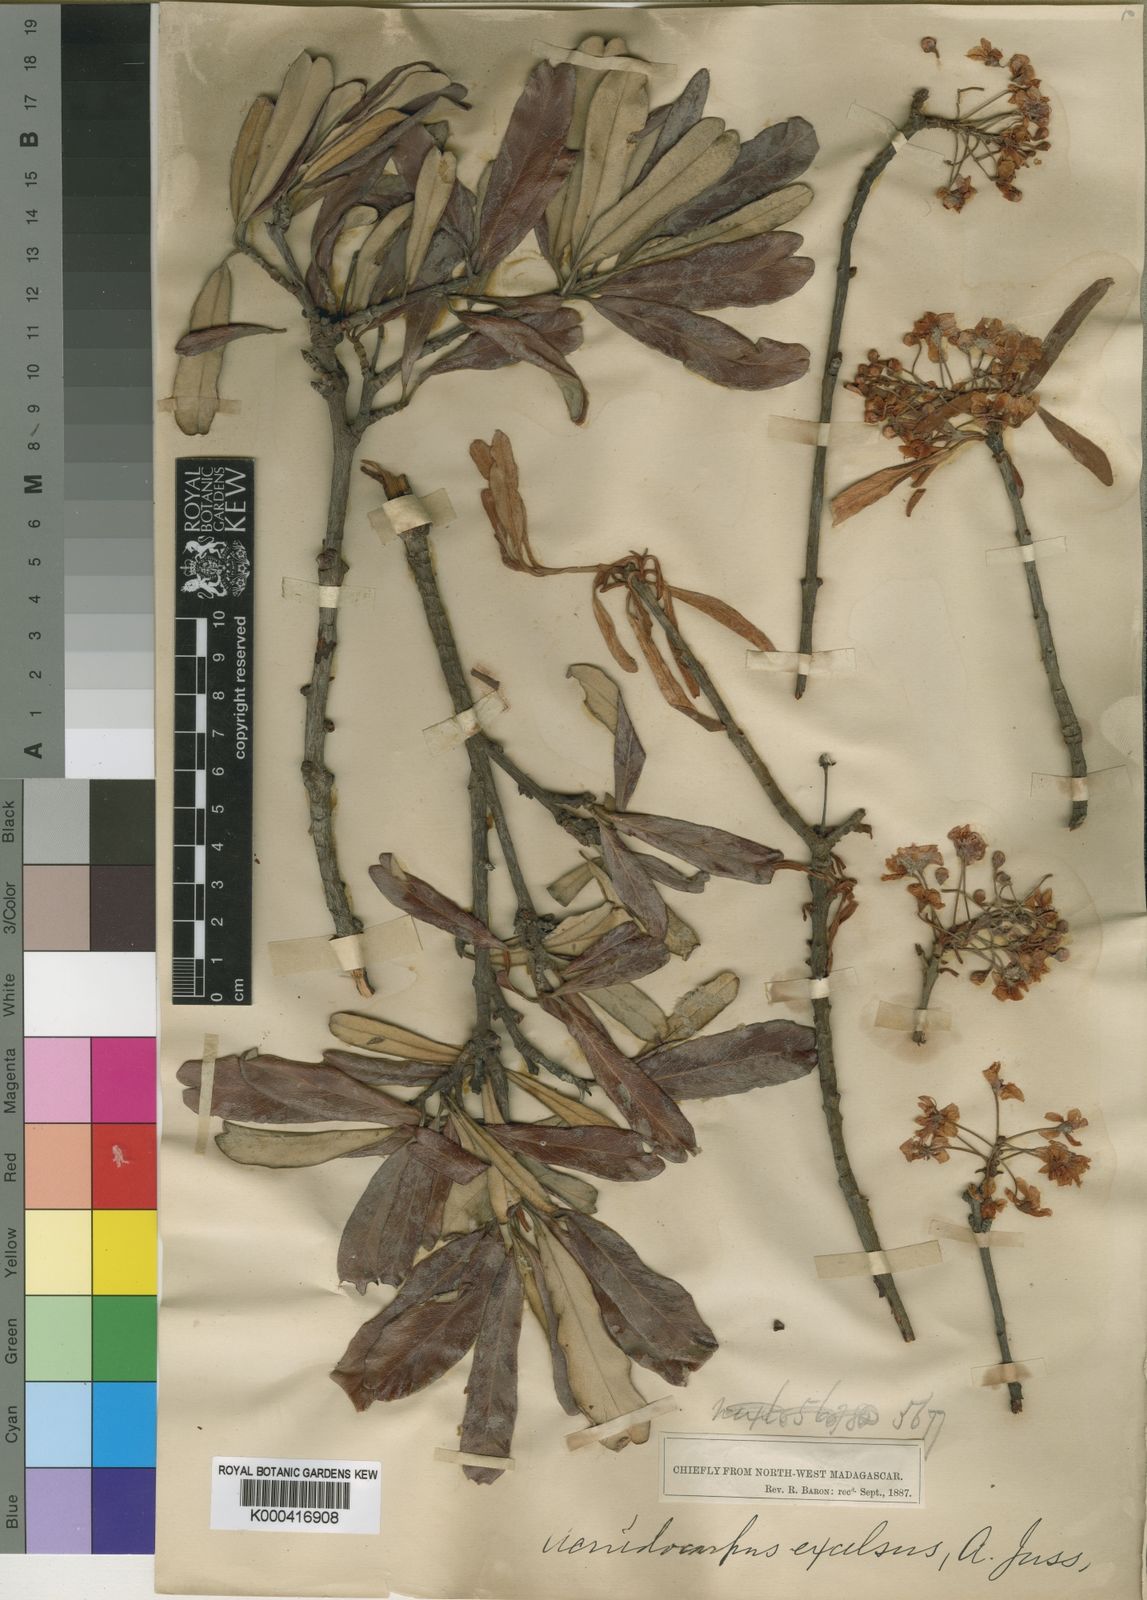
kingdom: Plantae
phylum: Tracheophyta
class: Magnoliopsida
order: Malpighiales
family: Malpighiaceae
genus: Acridocarpus
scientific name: Acridocarpus excelsus
